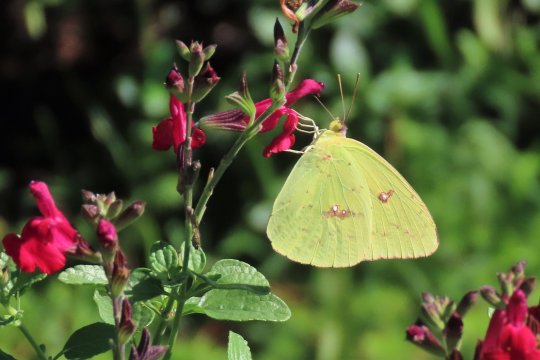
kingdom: Animalia
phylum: Arthropoda
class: Insecta
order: Lepidoptera
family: Pieridae
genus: Phoebis
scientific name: Phoebis sennae
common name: Cloudless Sulphur
